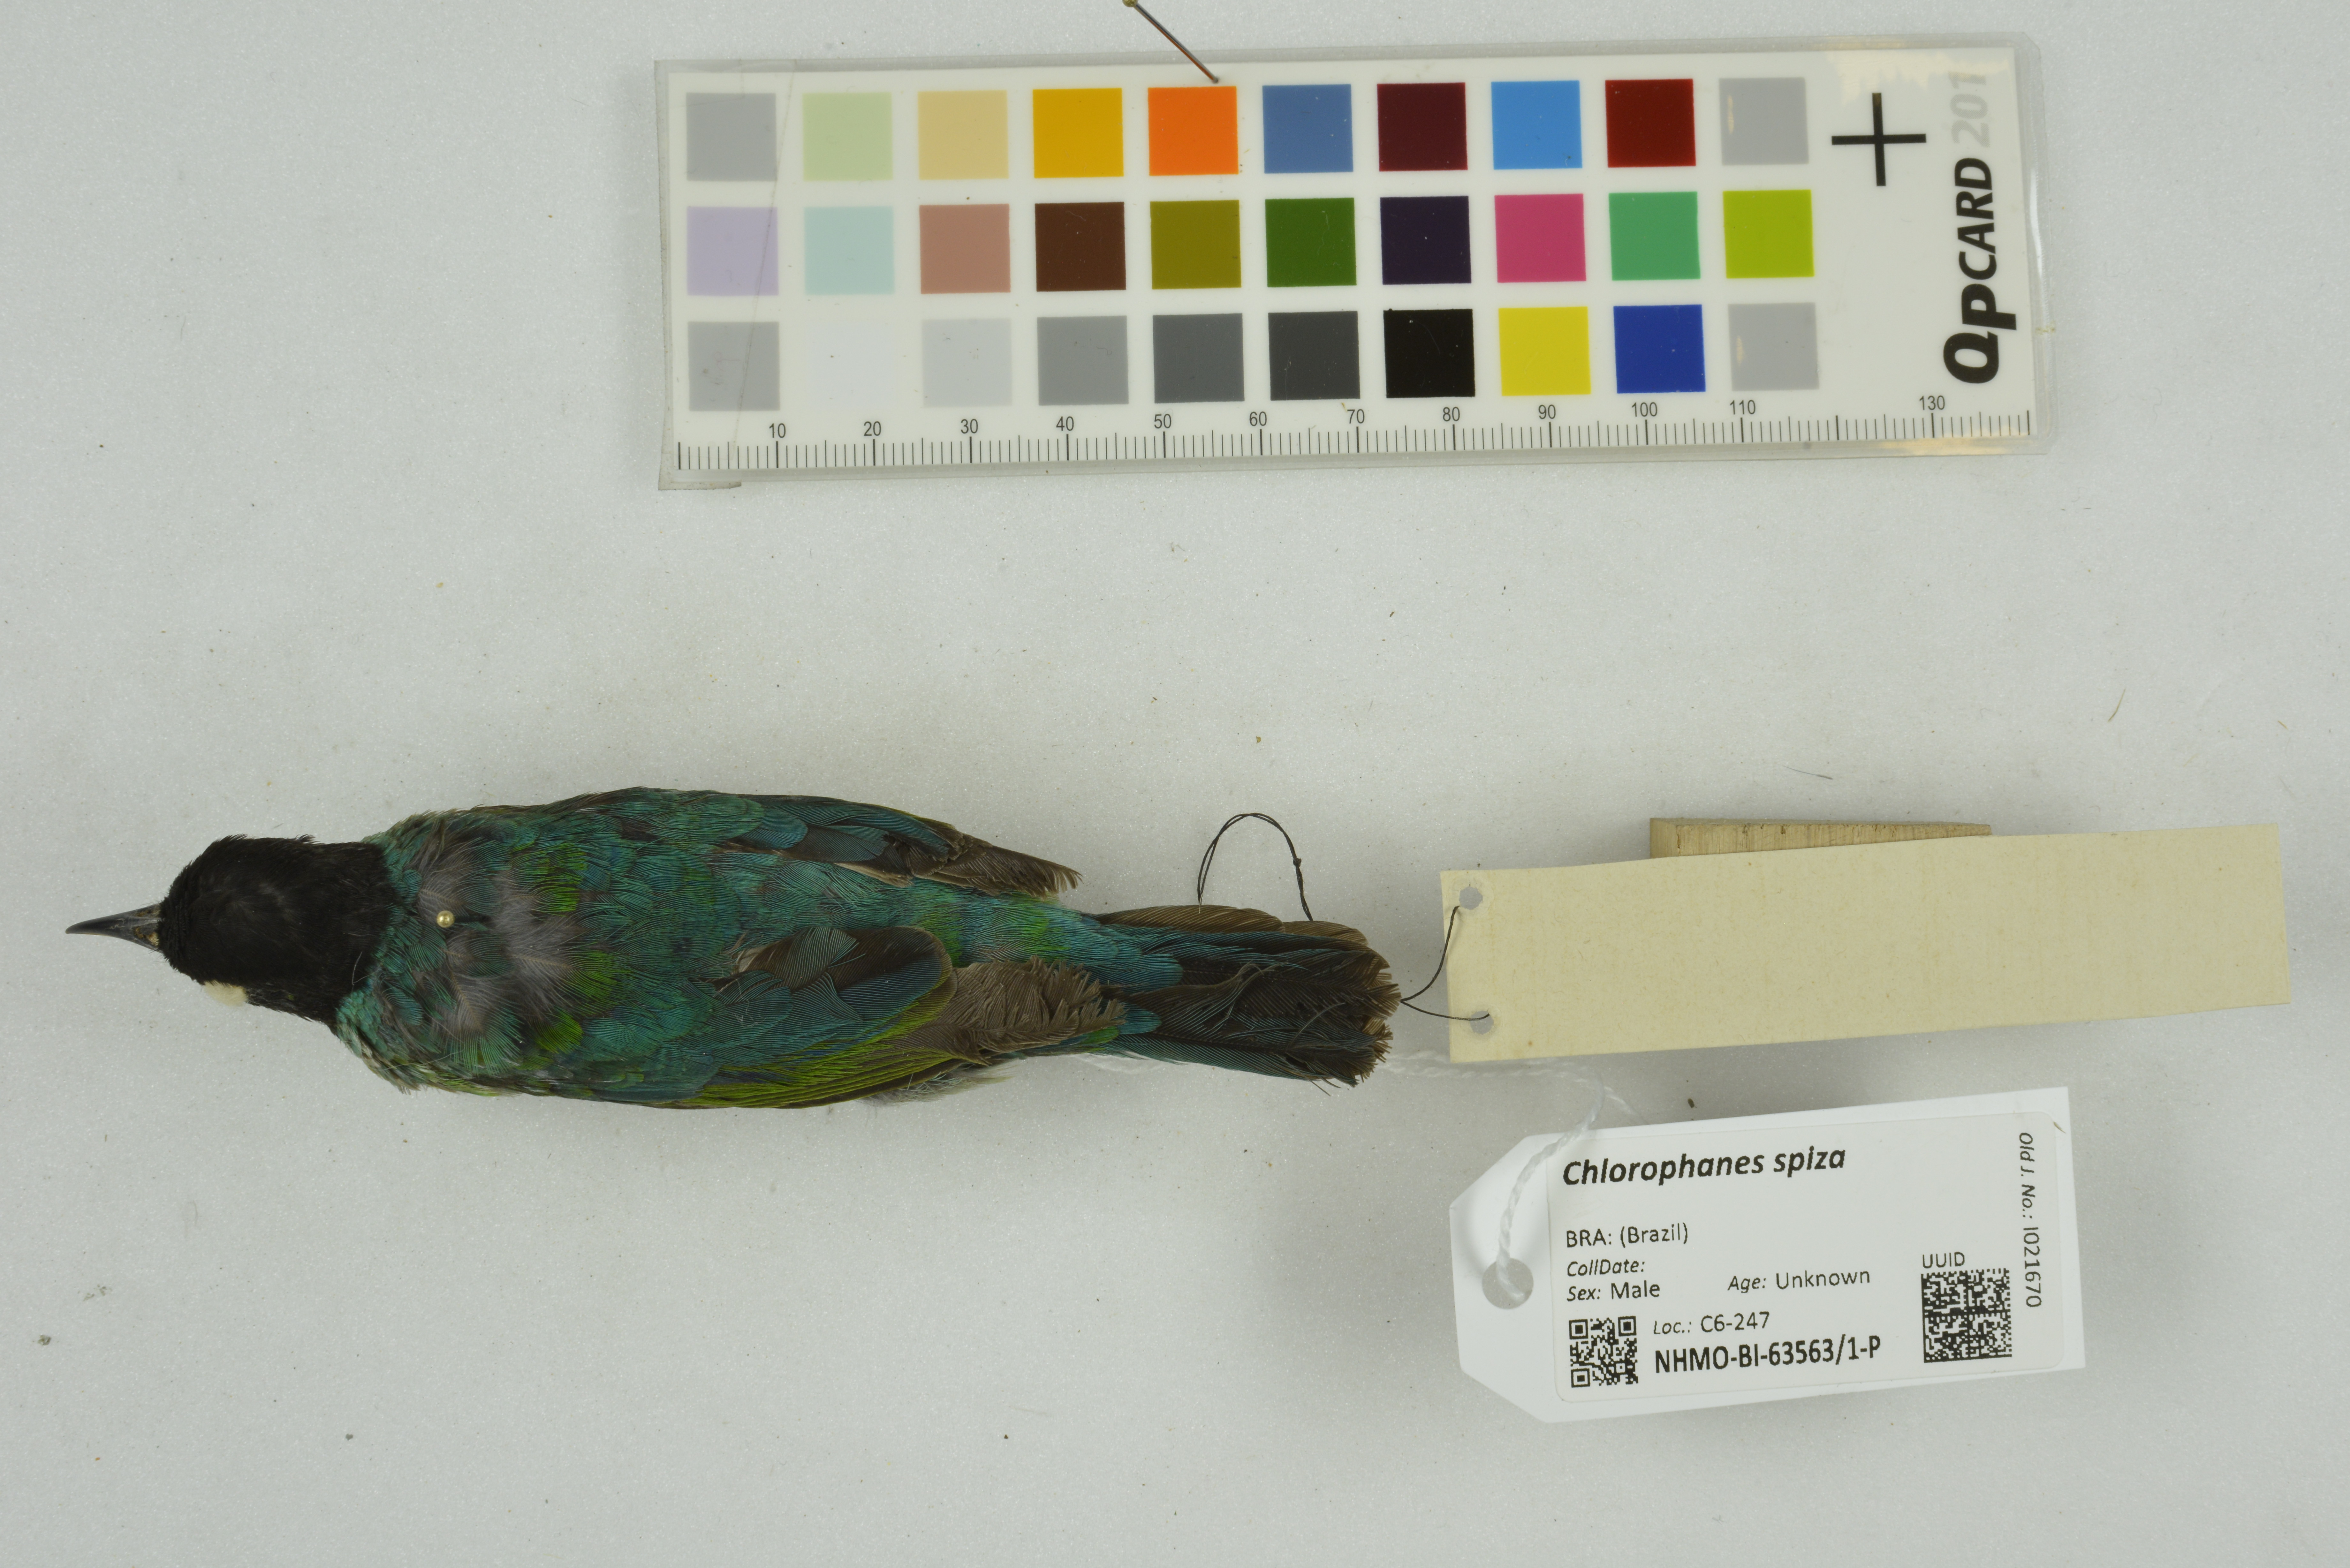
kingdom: Animalia
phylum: Chordata
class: Aves
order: Passeriformes
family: Thraupidae
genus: Chlorophanes
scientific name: Chlorophanes spiza
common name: Green honeycreeper
